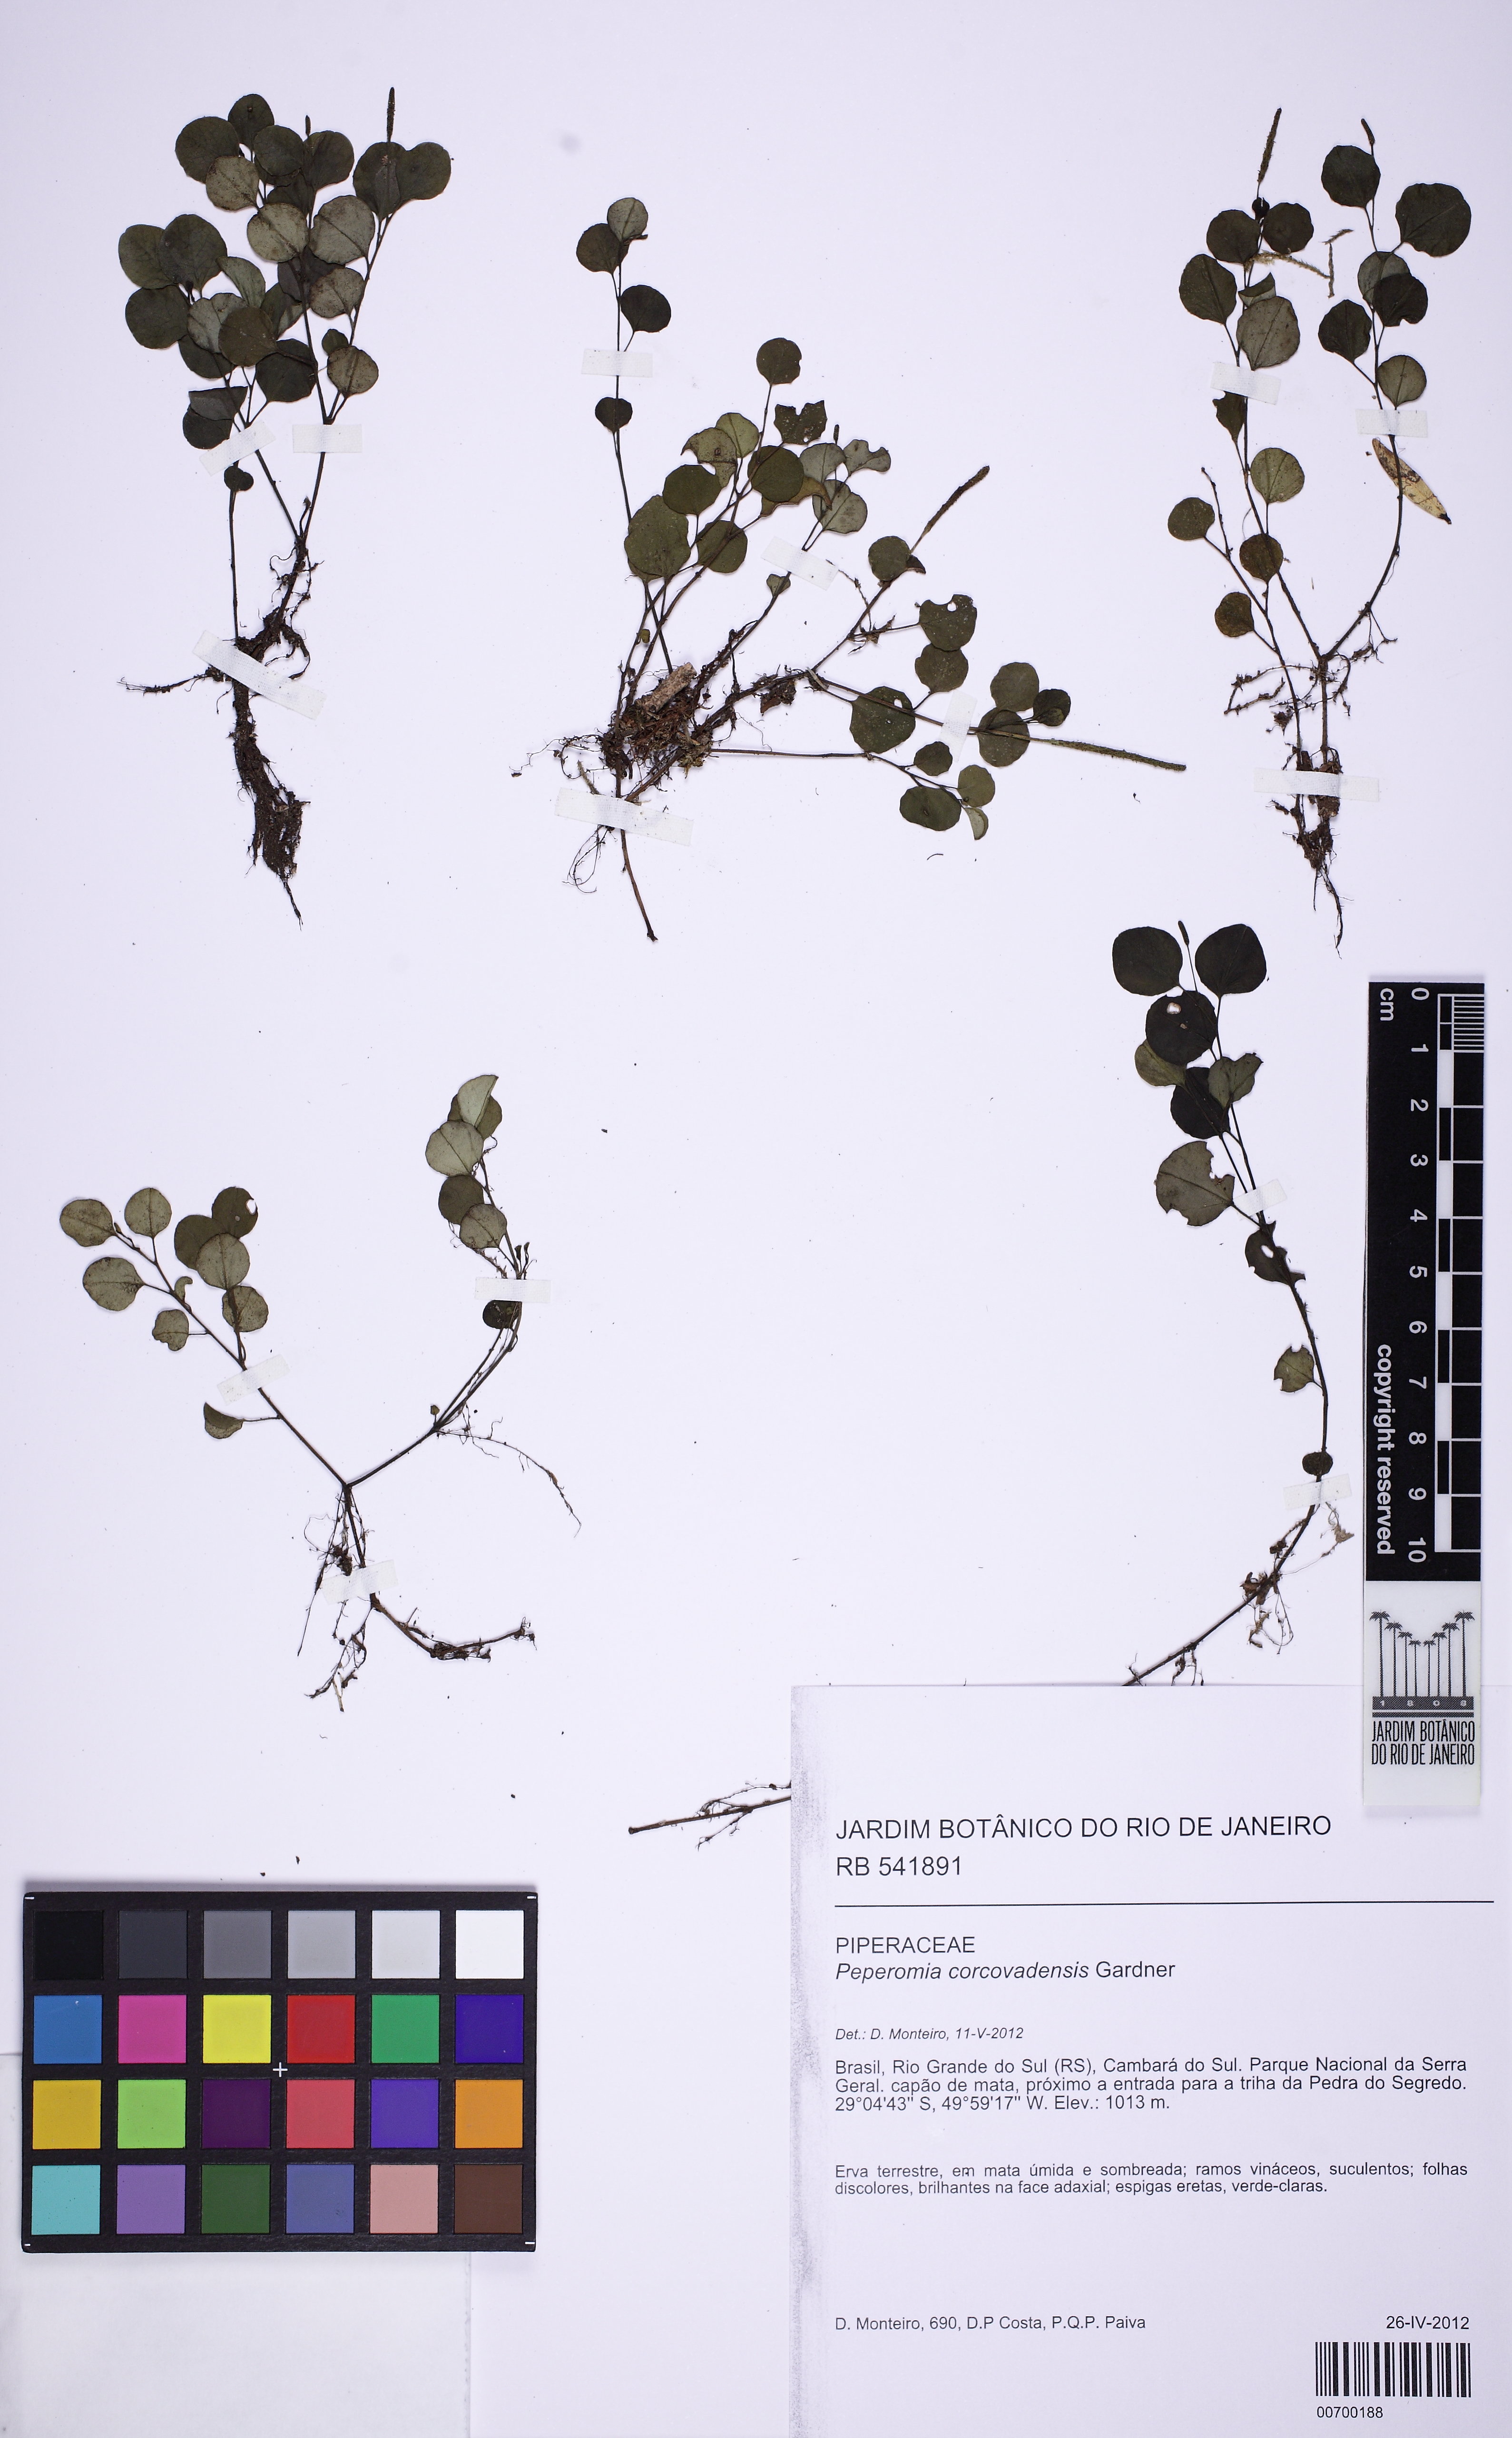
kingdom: Plantae
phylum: Tracheophyta
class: Magnoliopsida
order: Piperales
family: Piperaceae
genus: Peperomia
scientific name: Peperomia corcovadensis
